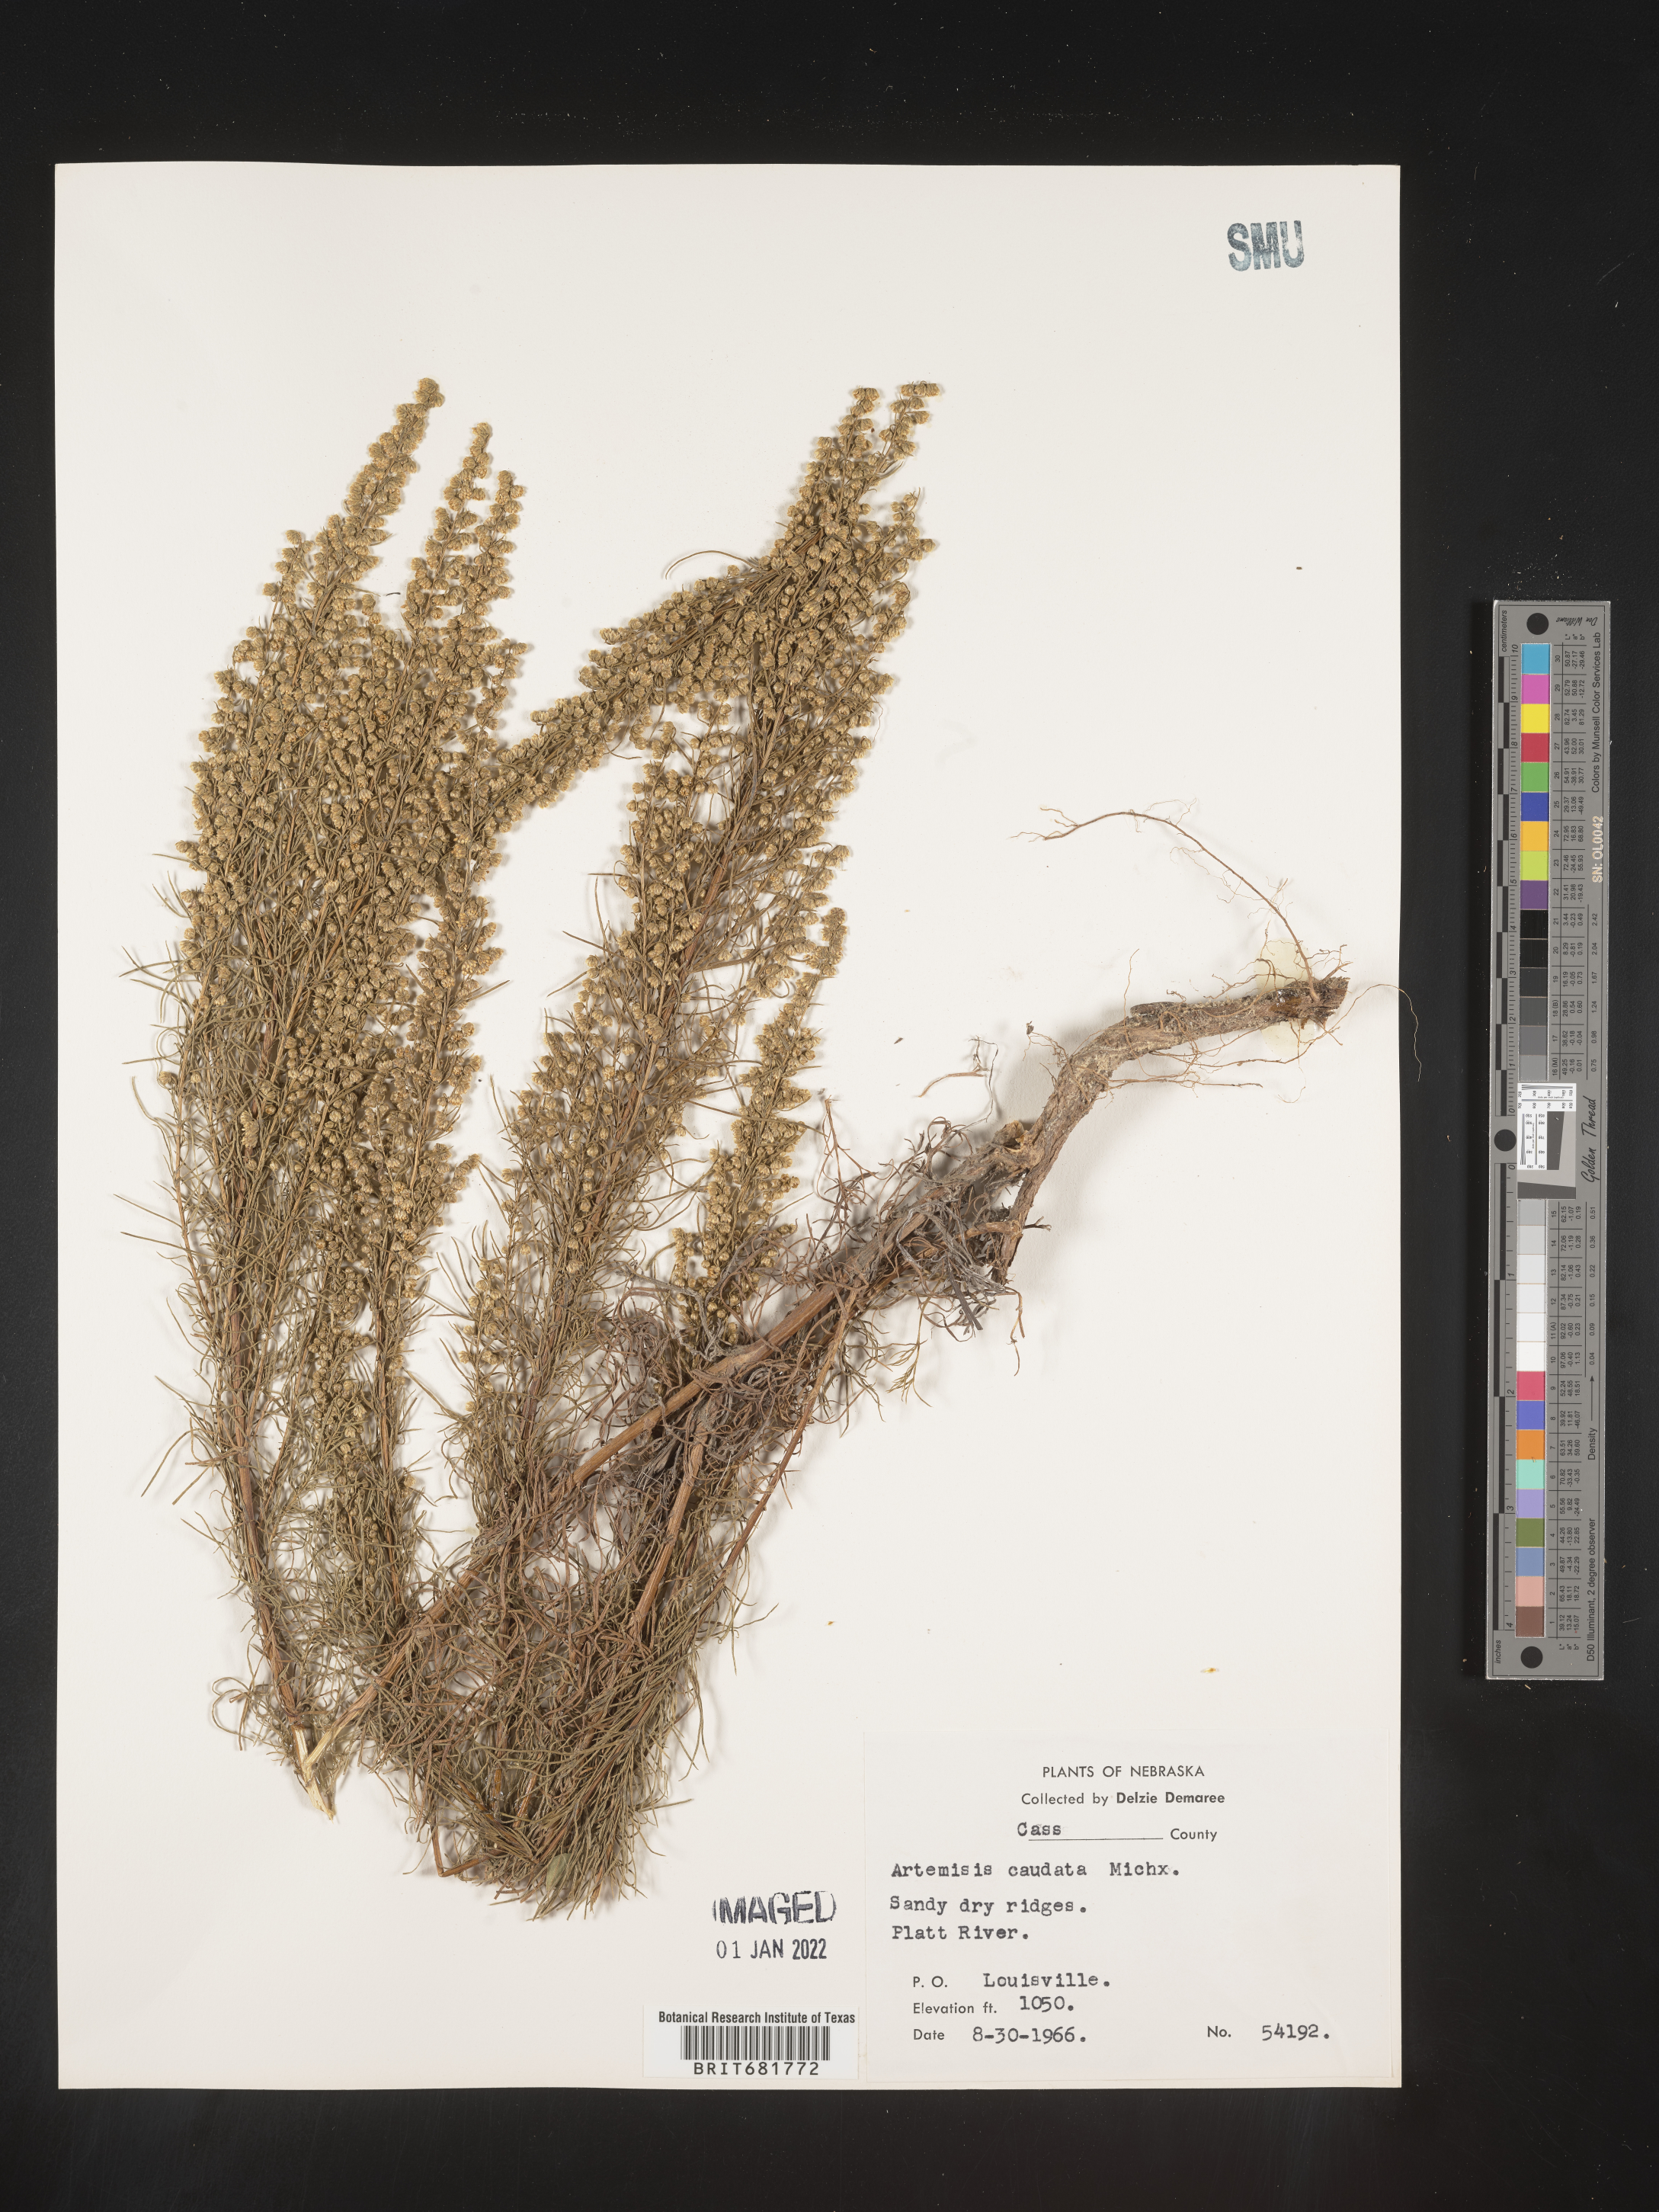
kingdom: Plantae
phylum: Tracheophyta
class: Magnoliopsida
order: Asterales
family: Asteraceae
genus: Artemisia
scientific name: Artemisia campestris
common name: Field wormwood
